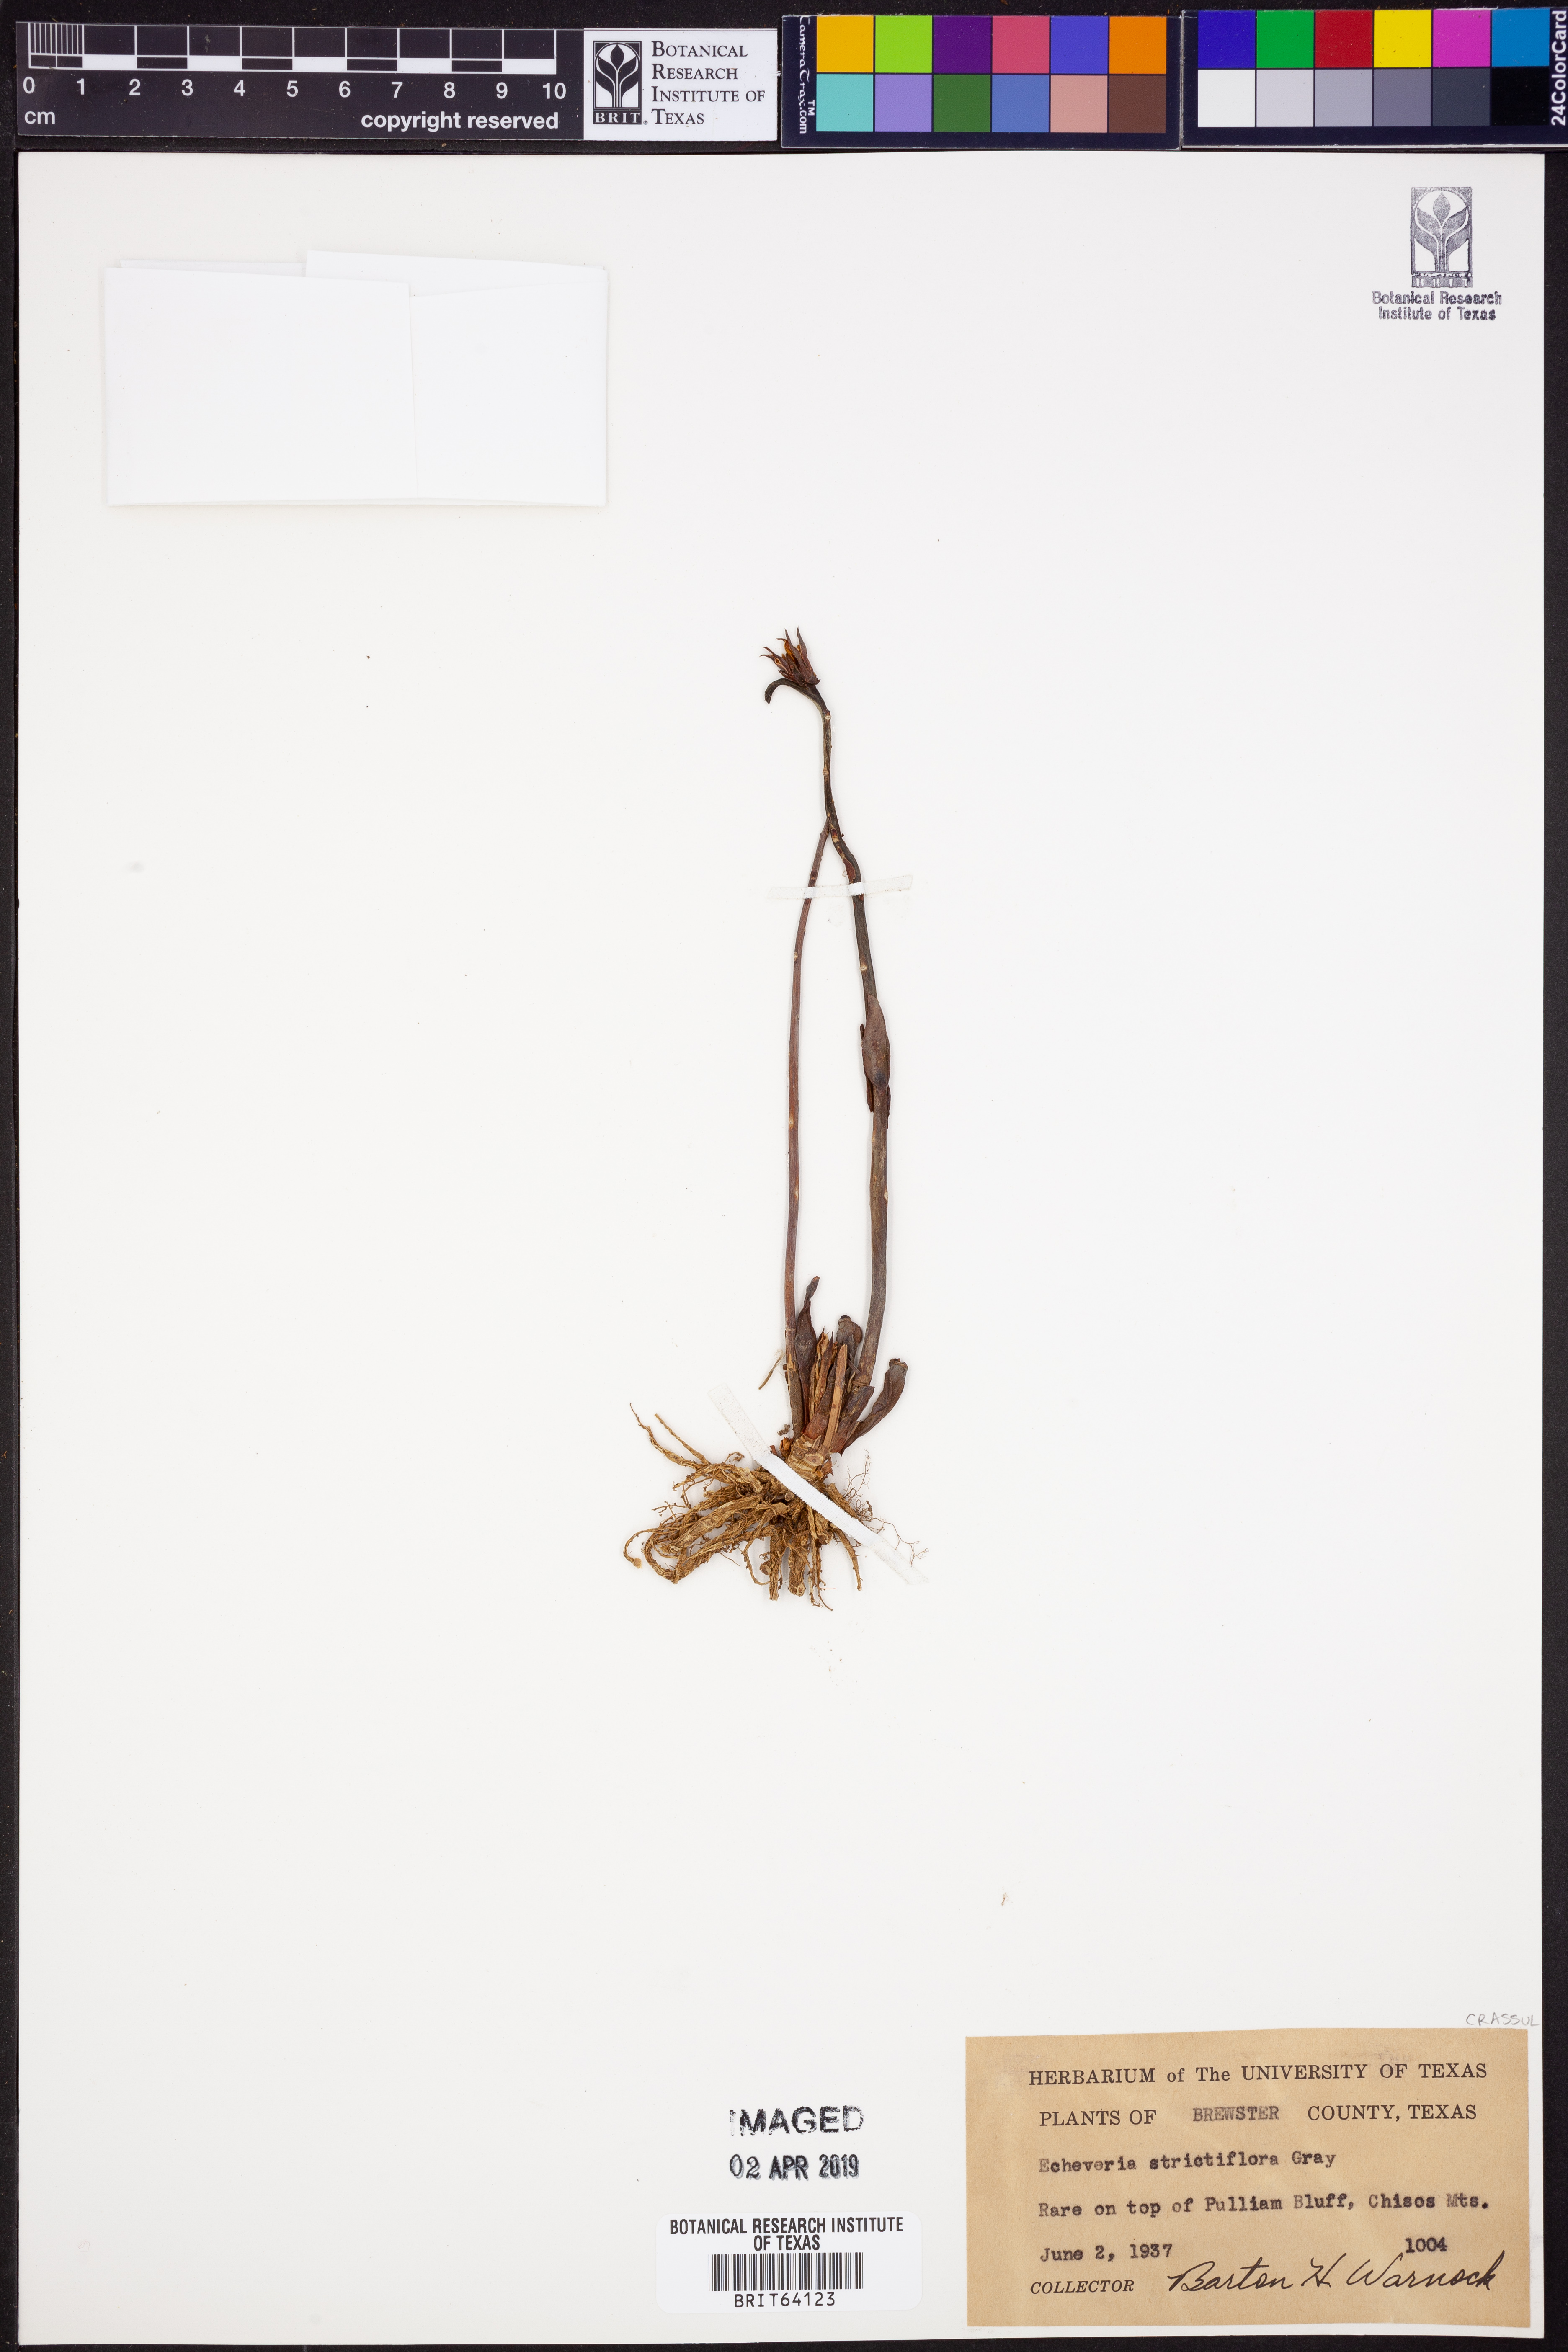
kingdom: Plantae
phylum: Tracheophyta
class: Magnoliopsida
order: Saxifragales
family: Crassulaceae
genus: Echeveria
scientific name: Echeveria strictiflora
